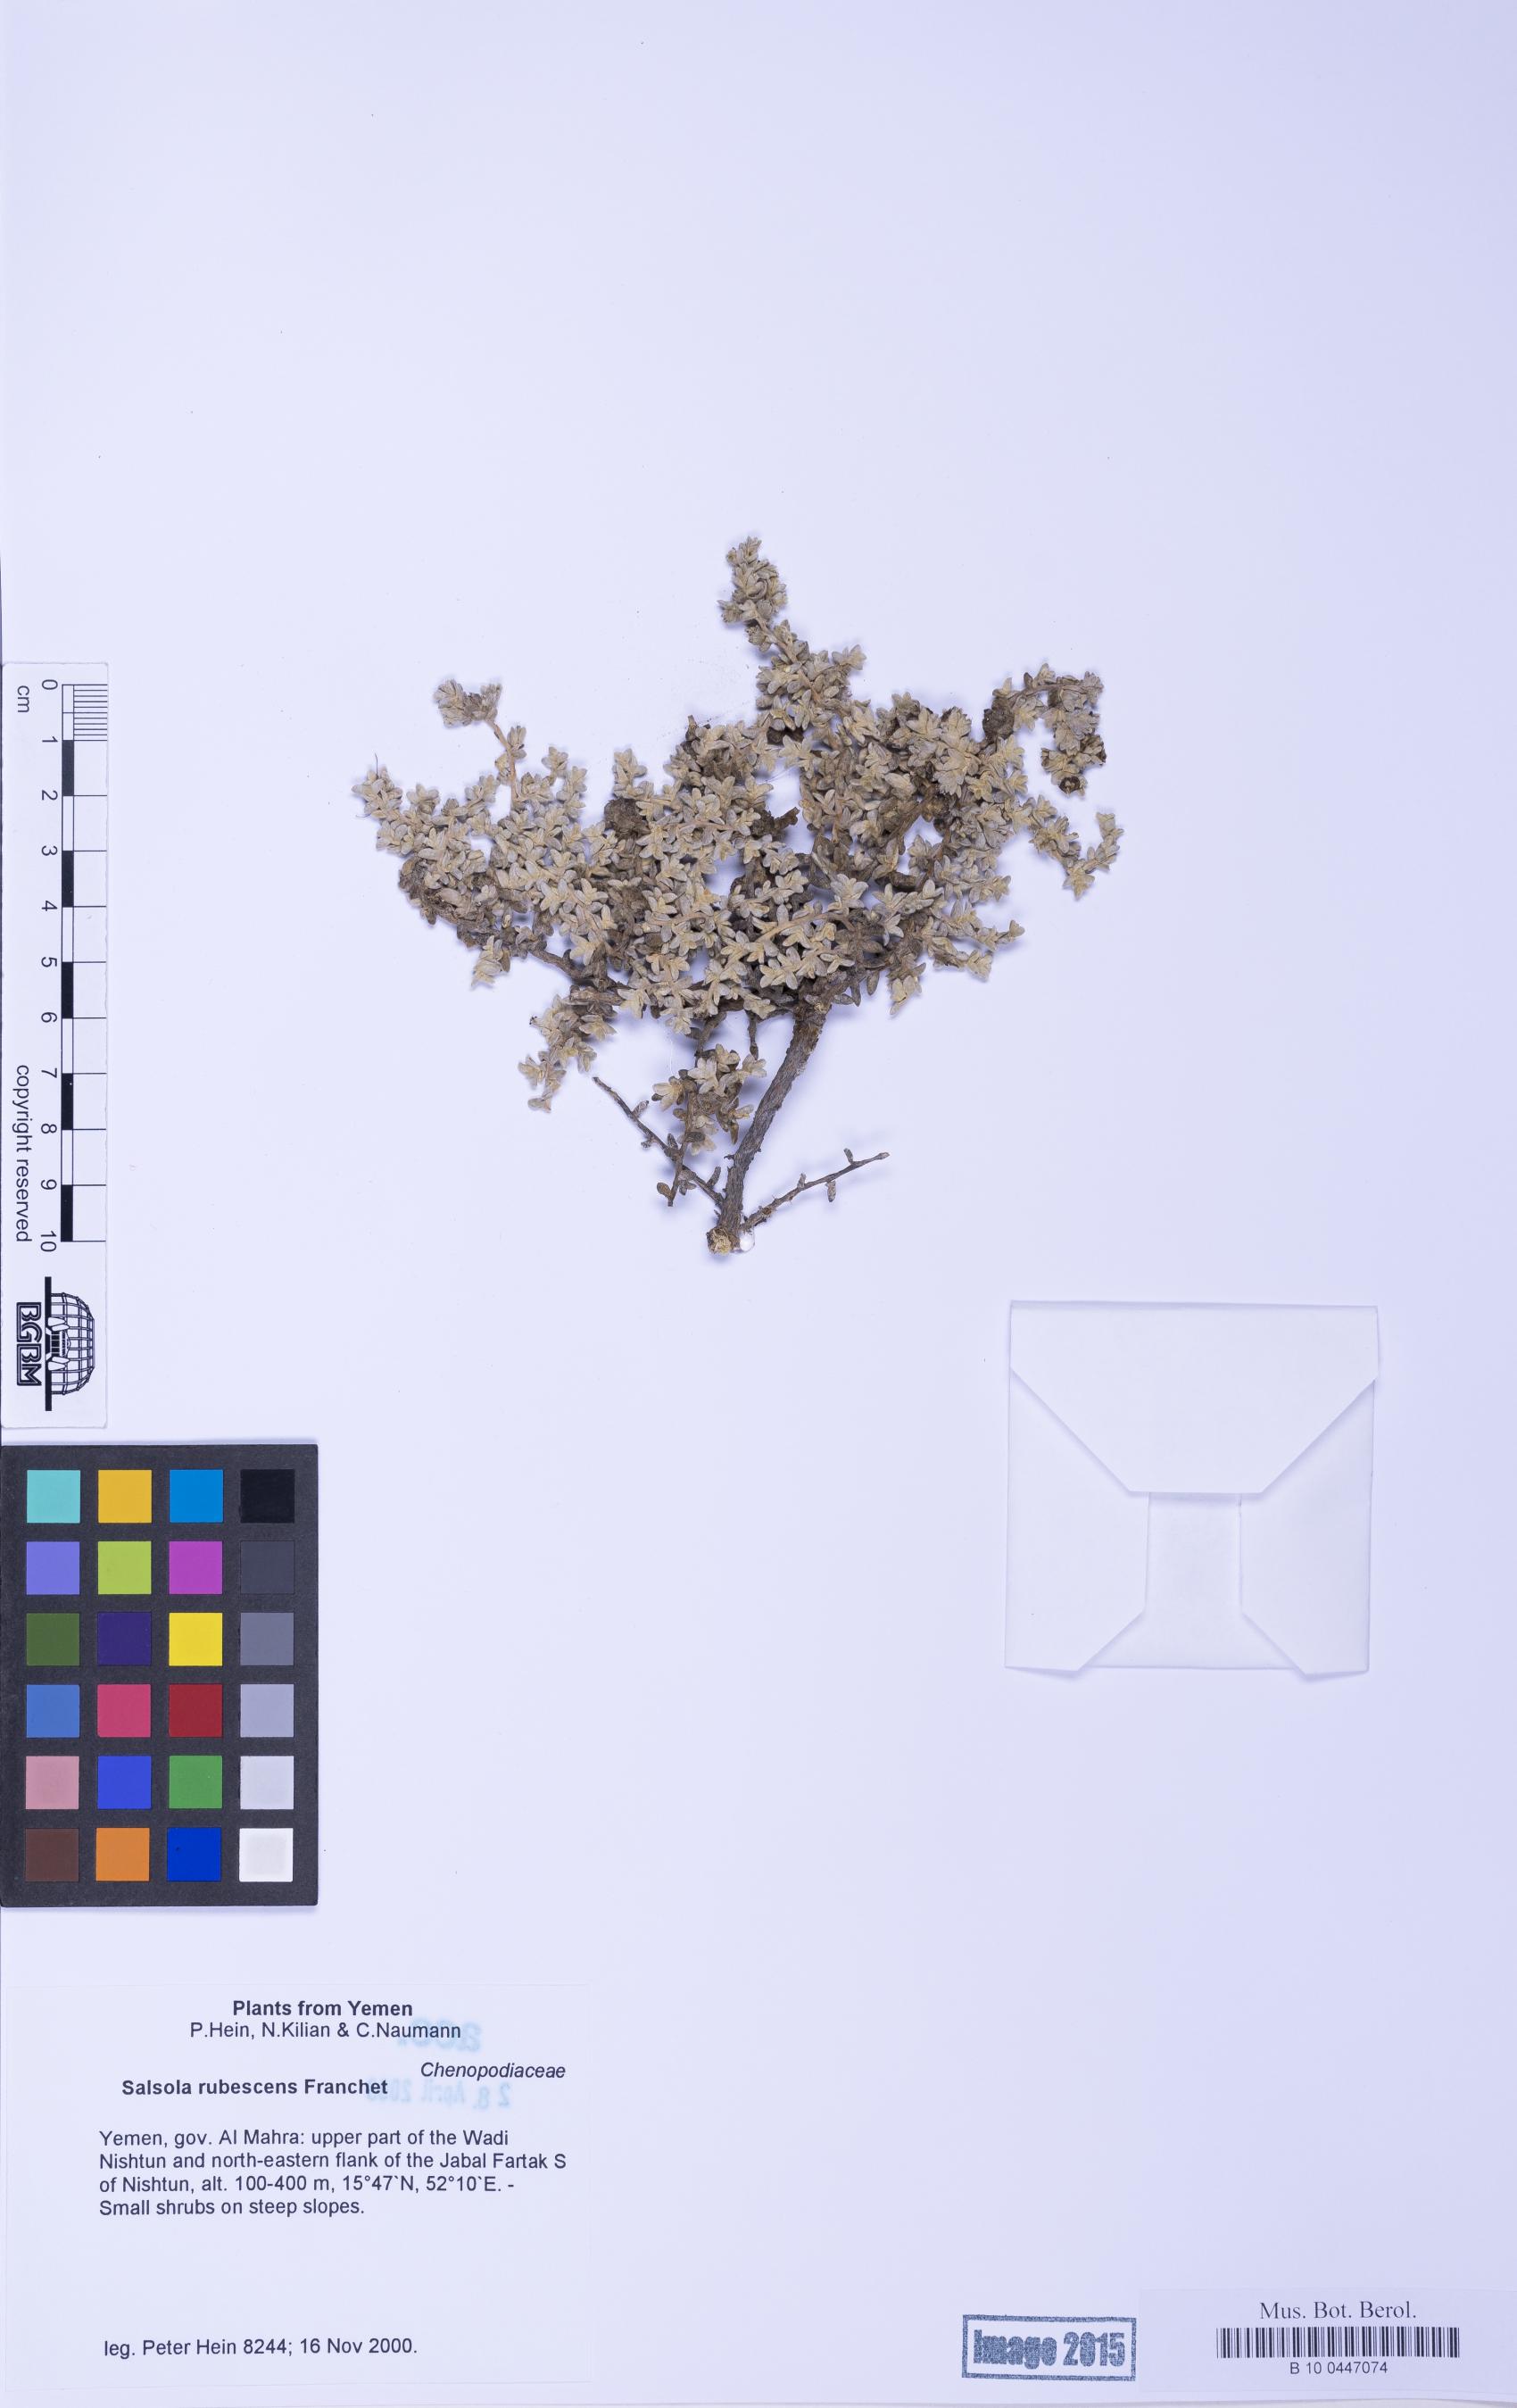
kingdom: Plantae
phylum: Tracheophyta
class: Magnoliopsida
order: Caryophyllales
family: Amaranthaceae
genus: Kaviria
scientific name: Kaviria rubescens
